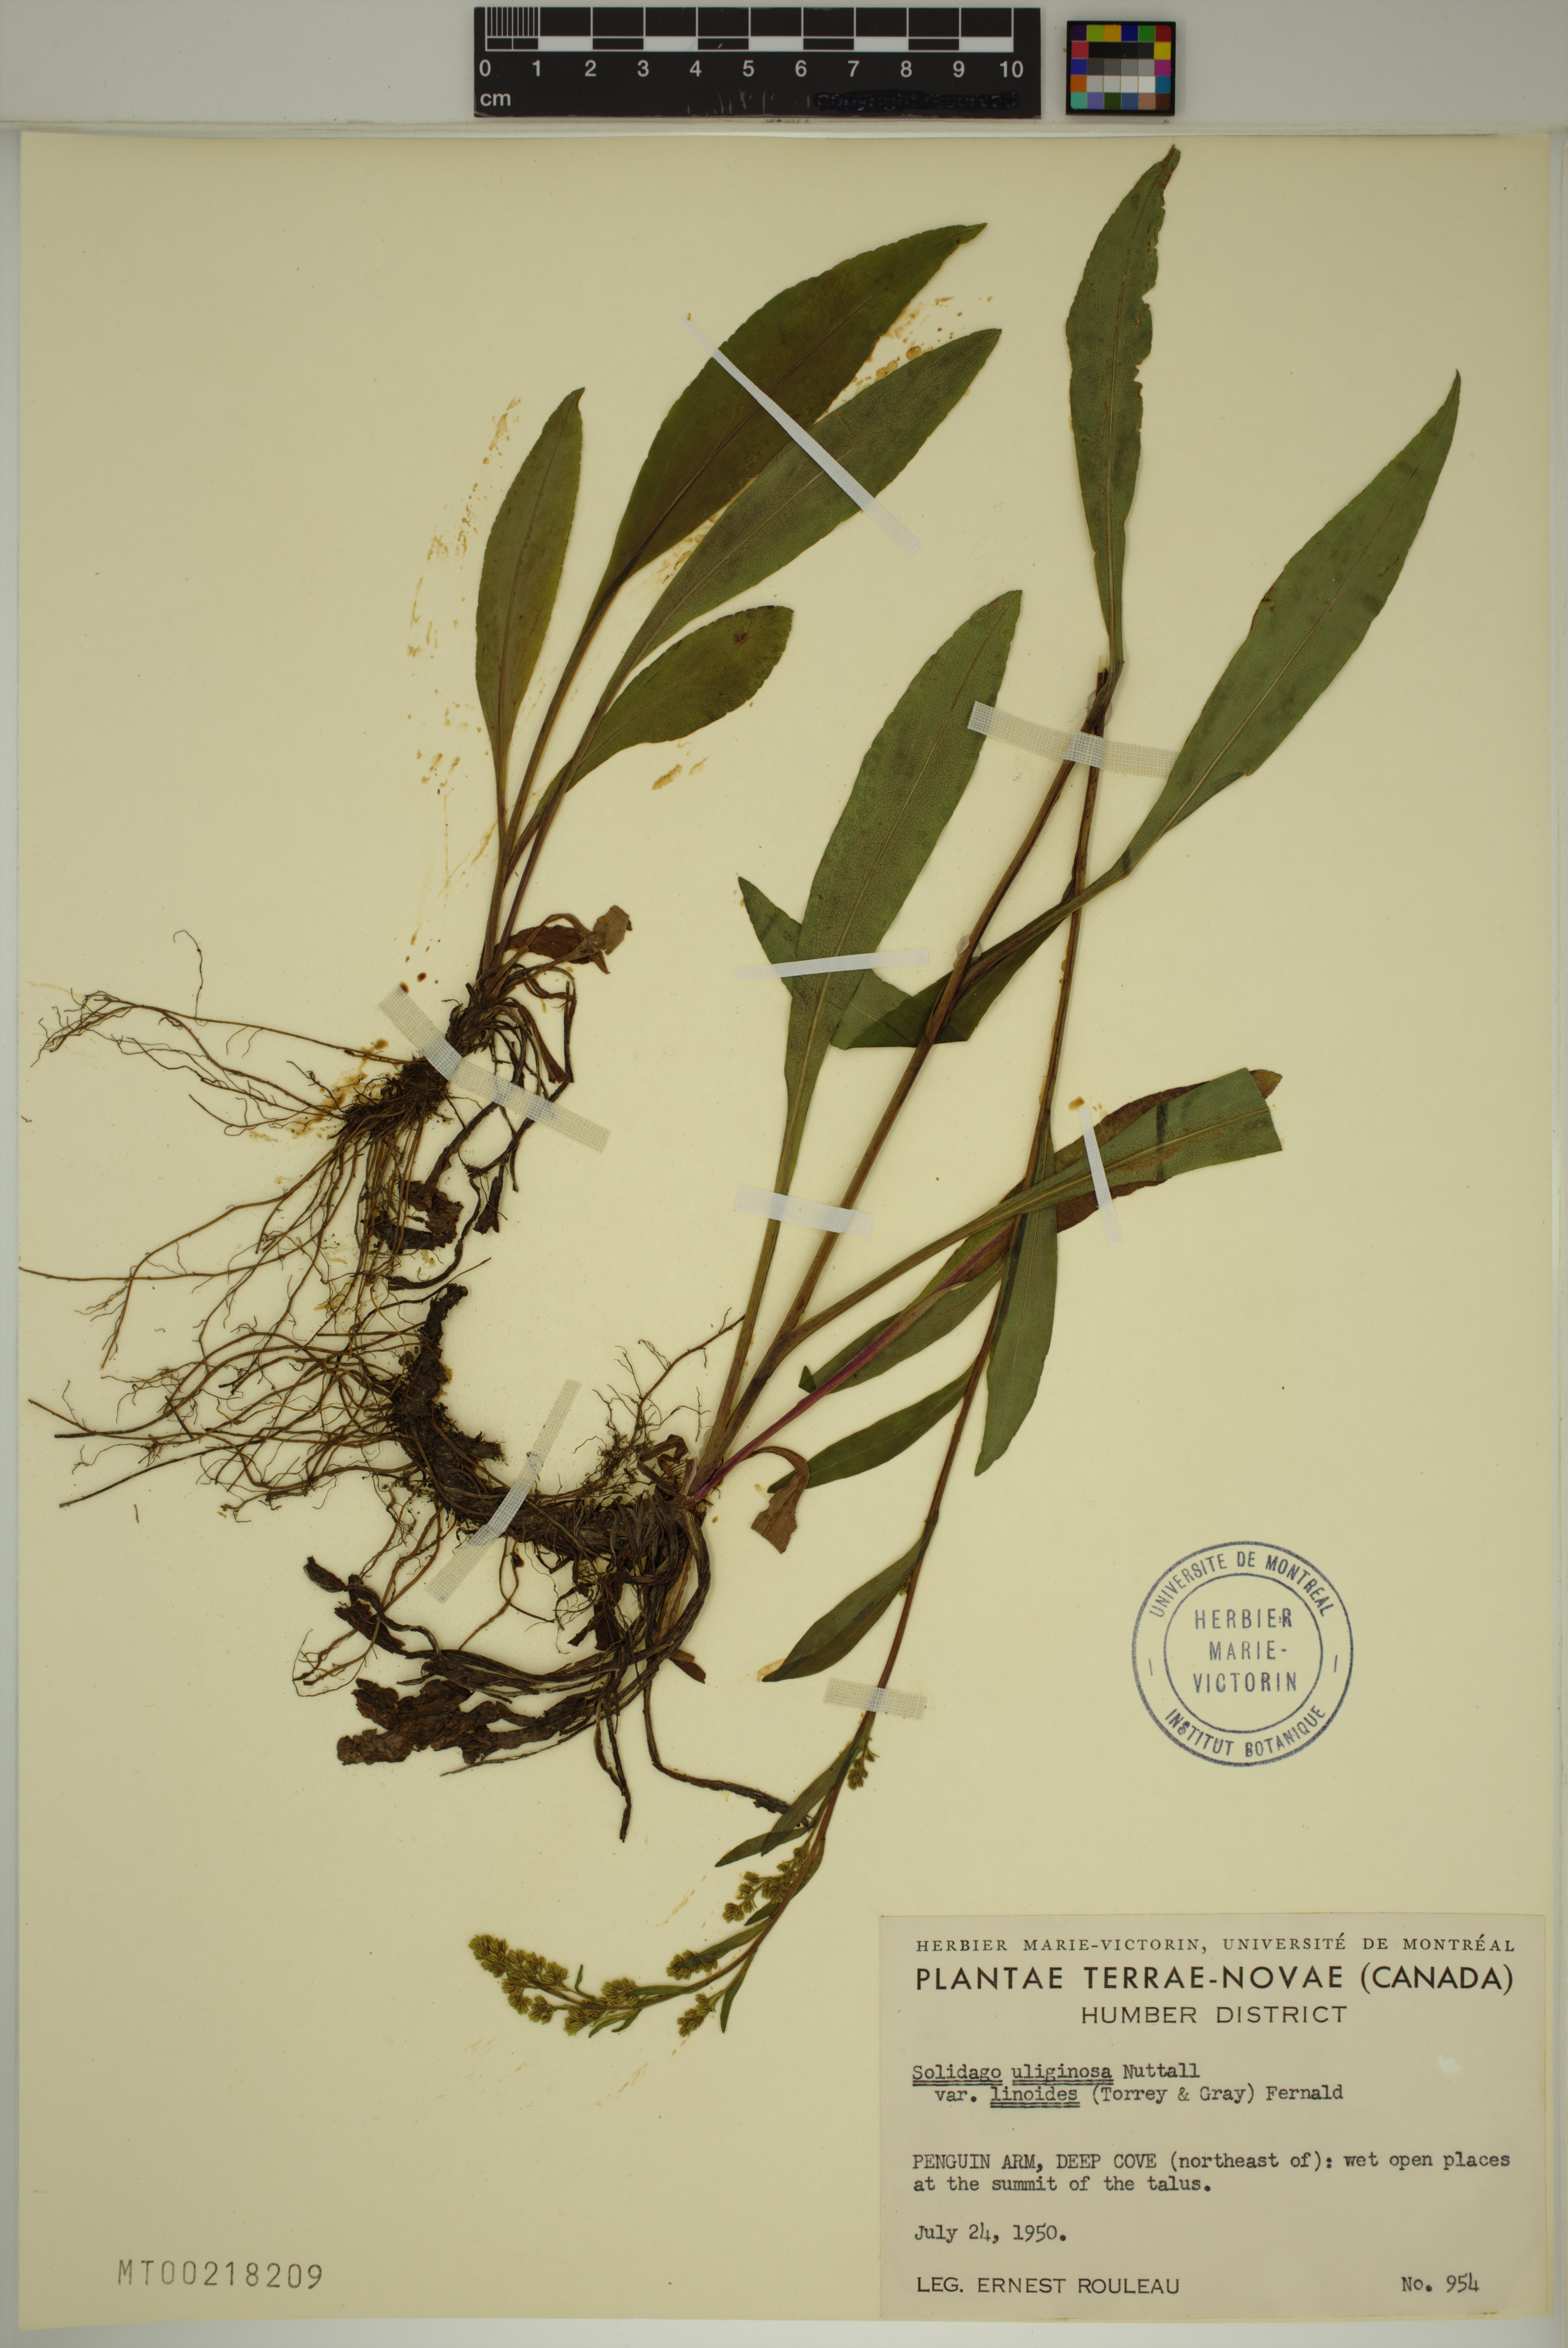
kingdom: Plantae
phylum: Tracheophyta
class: Magnoliopsida
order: Asterales
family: Asteraceae
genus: Solidago
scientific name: Solidago uliginosa
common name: Bog goldenrod
